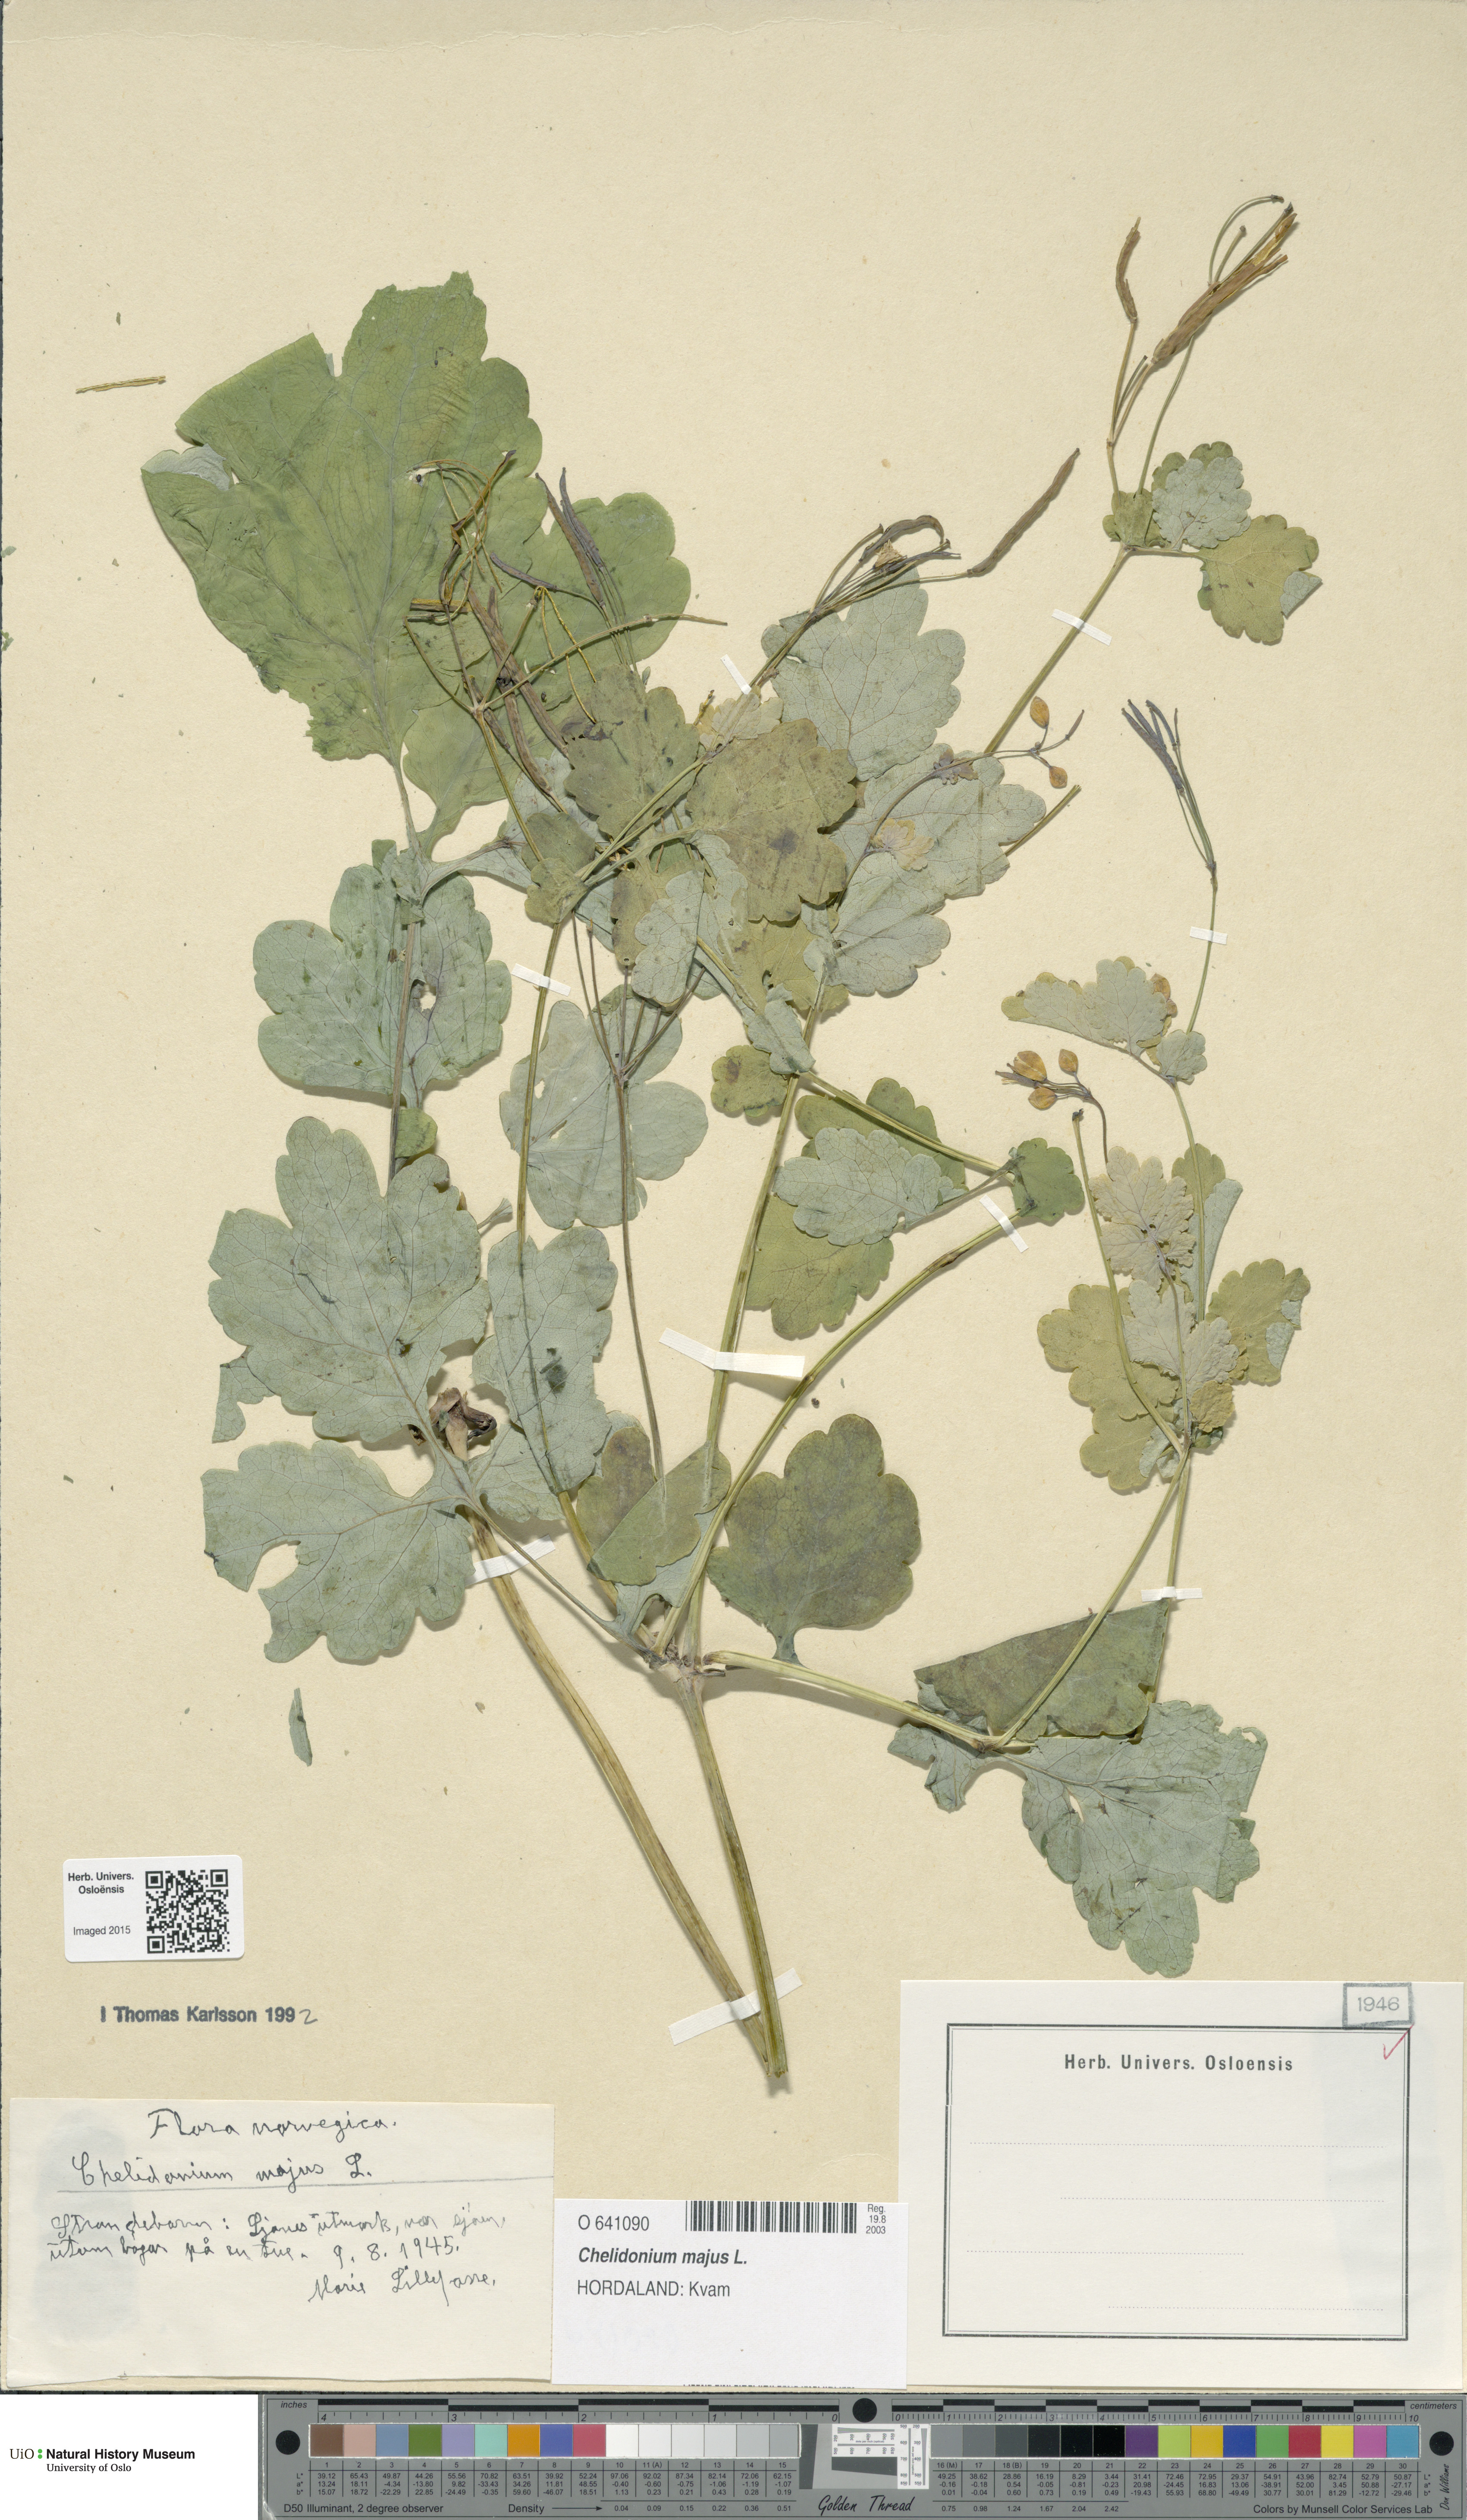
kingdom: Plantae
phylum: Tracheophyta
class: Magnoliopsida
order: Ranunculales
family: Papaveraceae
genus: Chelidonium
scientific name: Chelidonium majus
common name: Greater celandine
